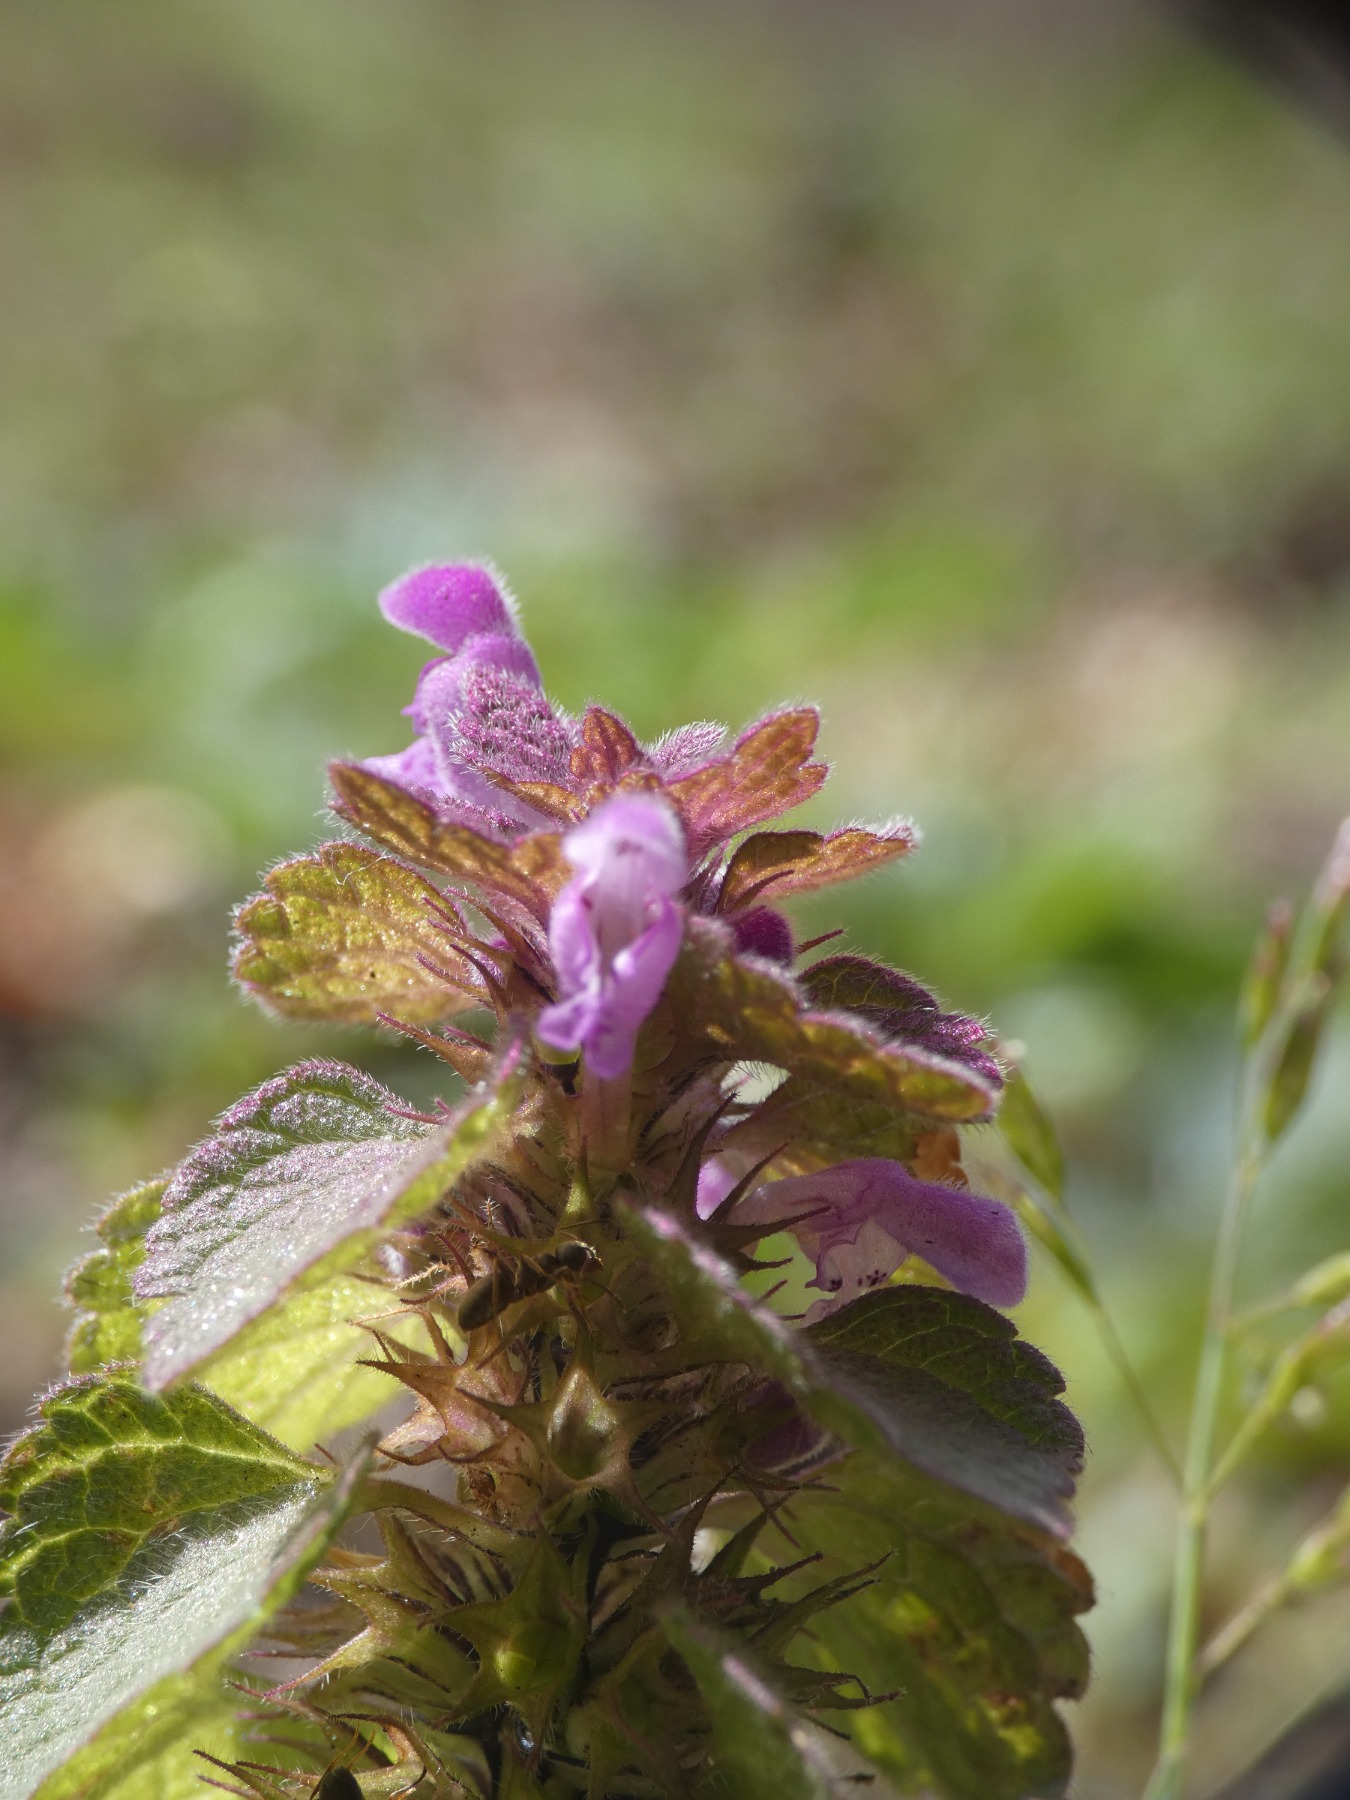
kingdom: Plantae
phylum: Tracheophyta
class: Magnoliopsida
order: Lamiales
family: Lamiaceae
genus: Lamium
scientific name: Lamium purpureum
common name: Rød tvetand
